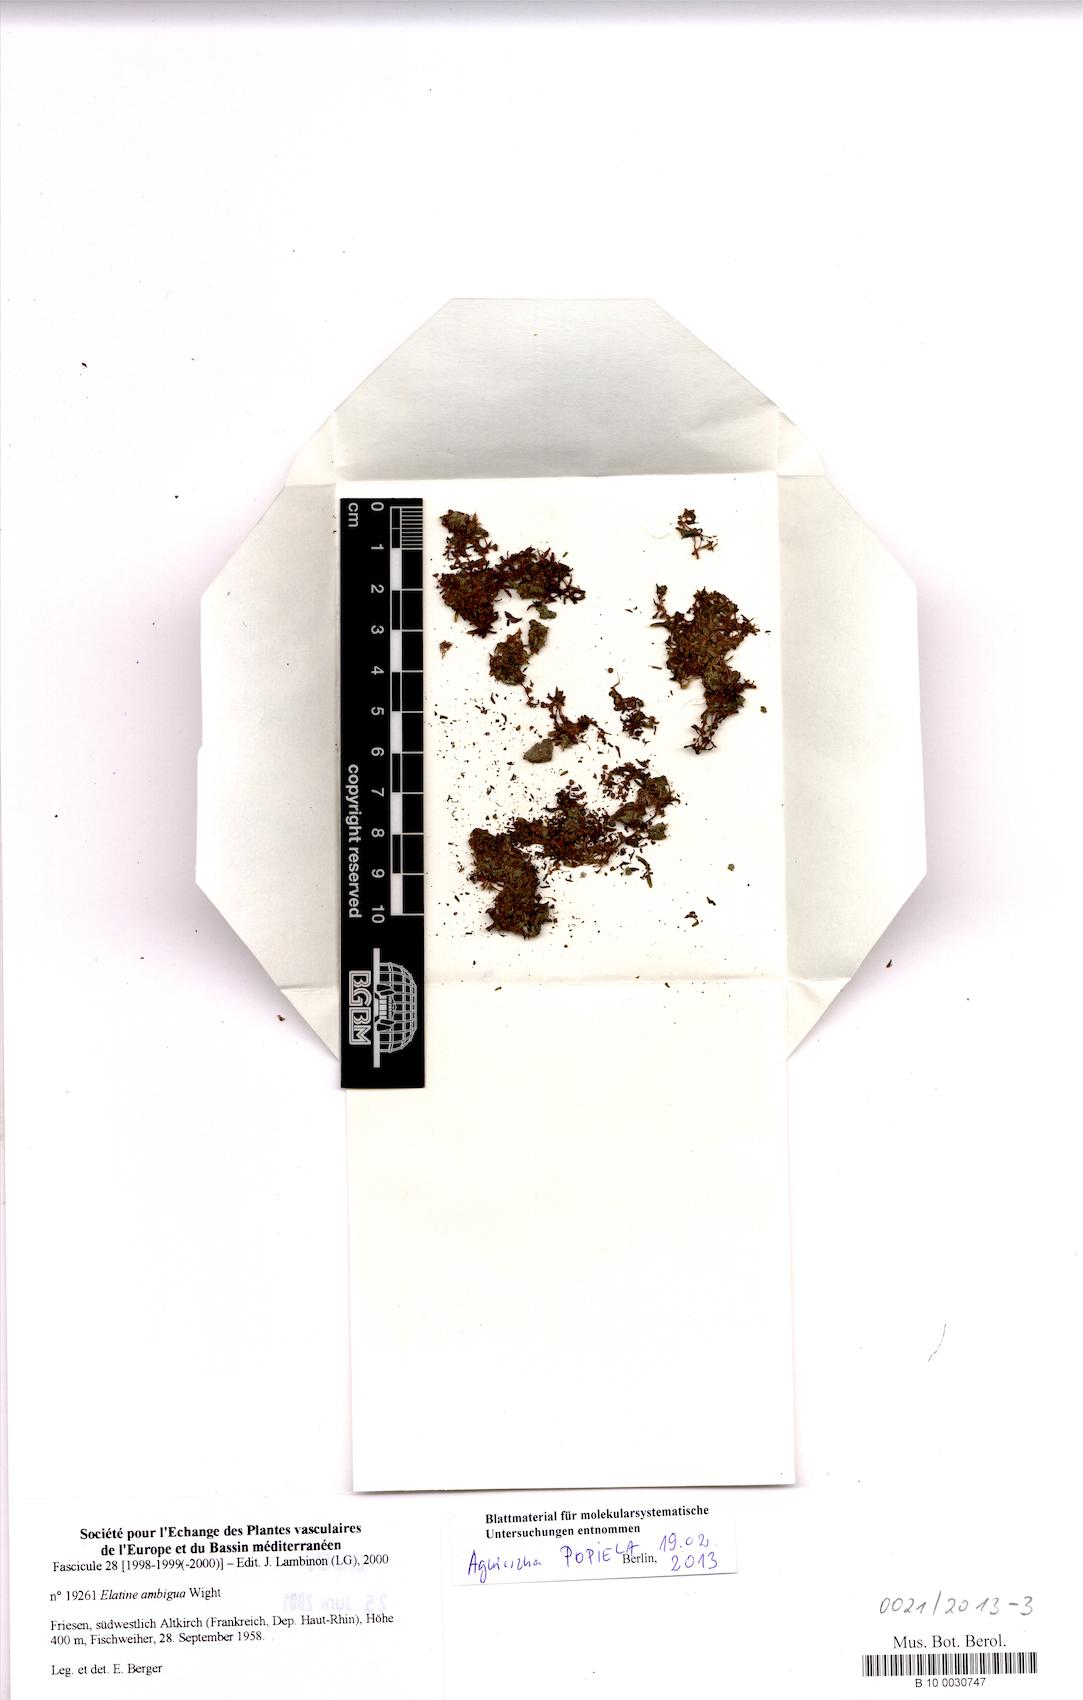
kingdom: Plantae
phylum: Tracheophyta
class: Magnoliopsida
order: Malpighiales
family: Elatinaceae
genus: Elatine
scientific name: Elatine ambigua
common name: Asian waterwort
